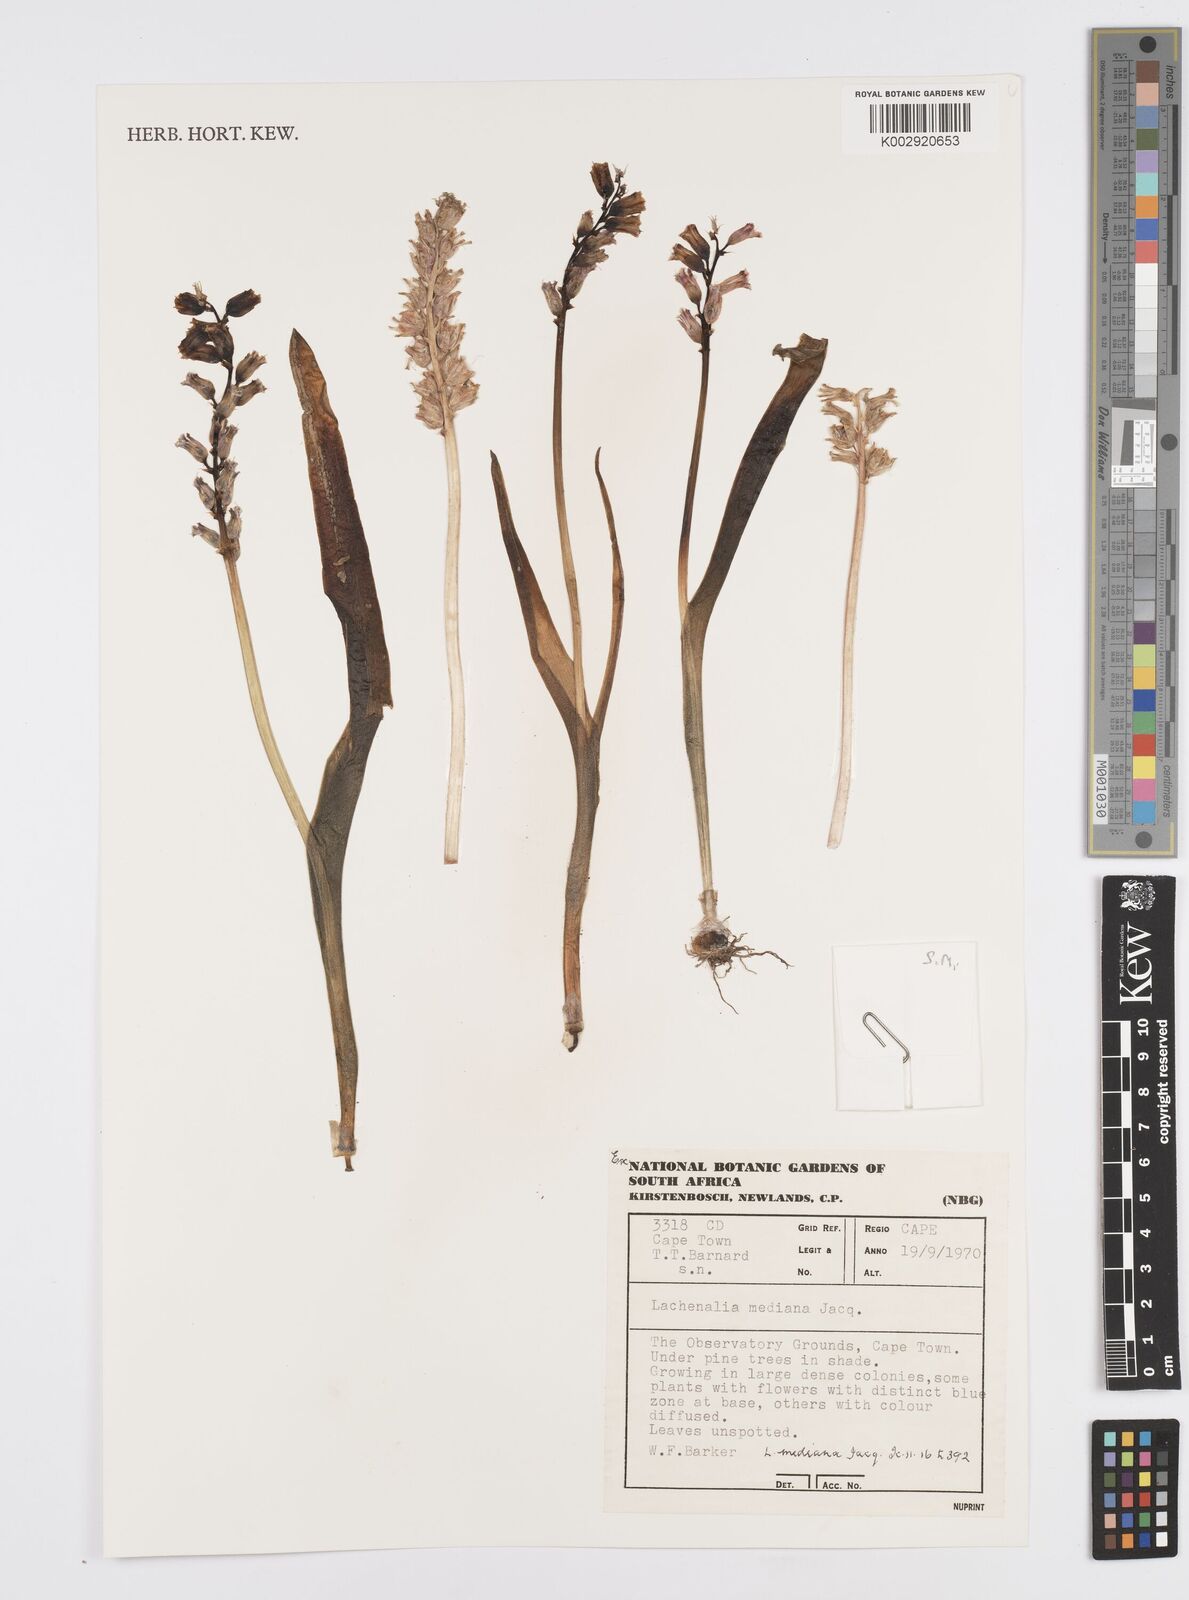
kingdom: Plantae
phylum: Tracheophyta
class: Liliopsida
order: Asparagales
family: Asparagaceae
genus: Lachenalia
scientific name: Lachenalia mediana
